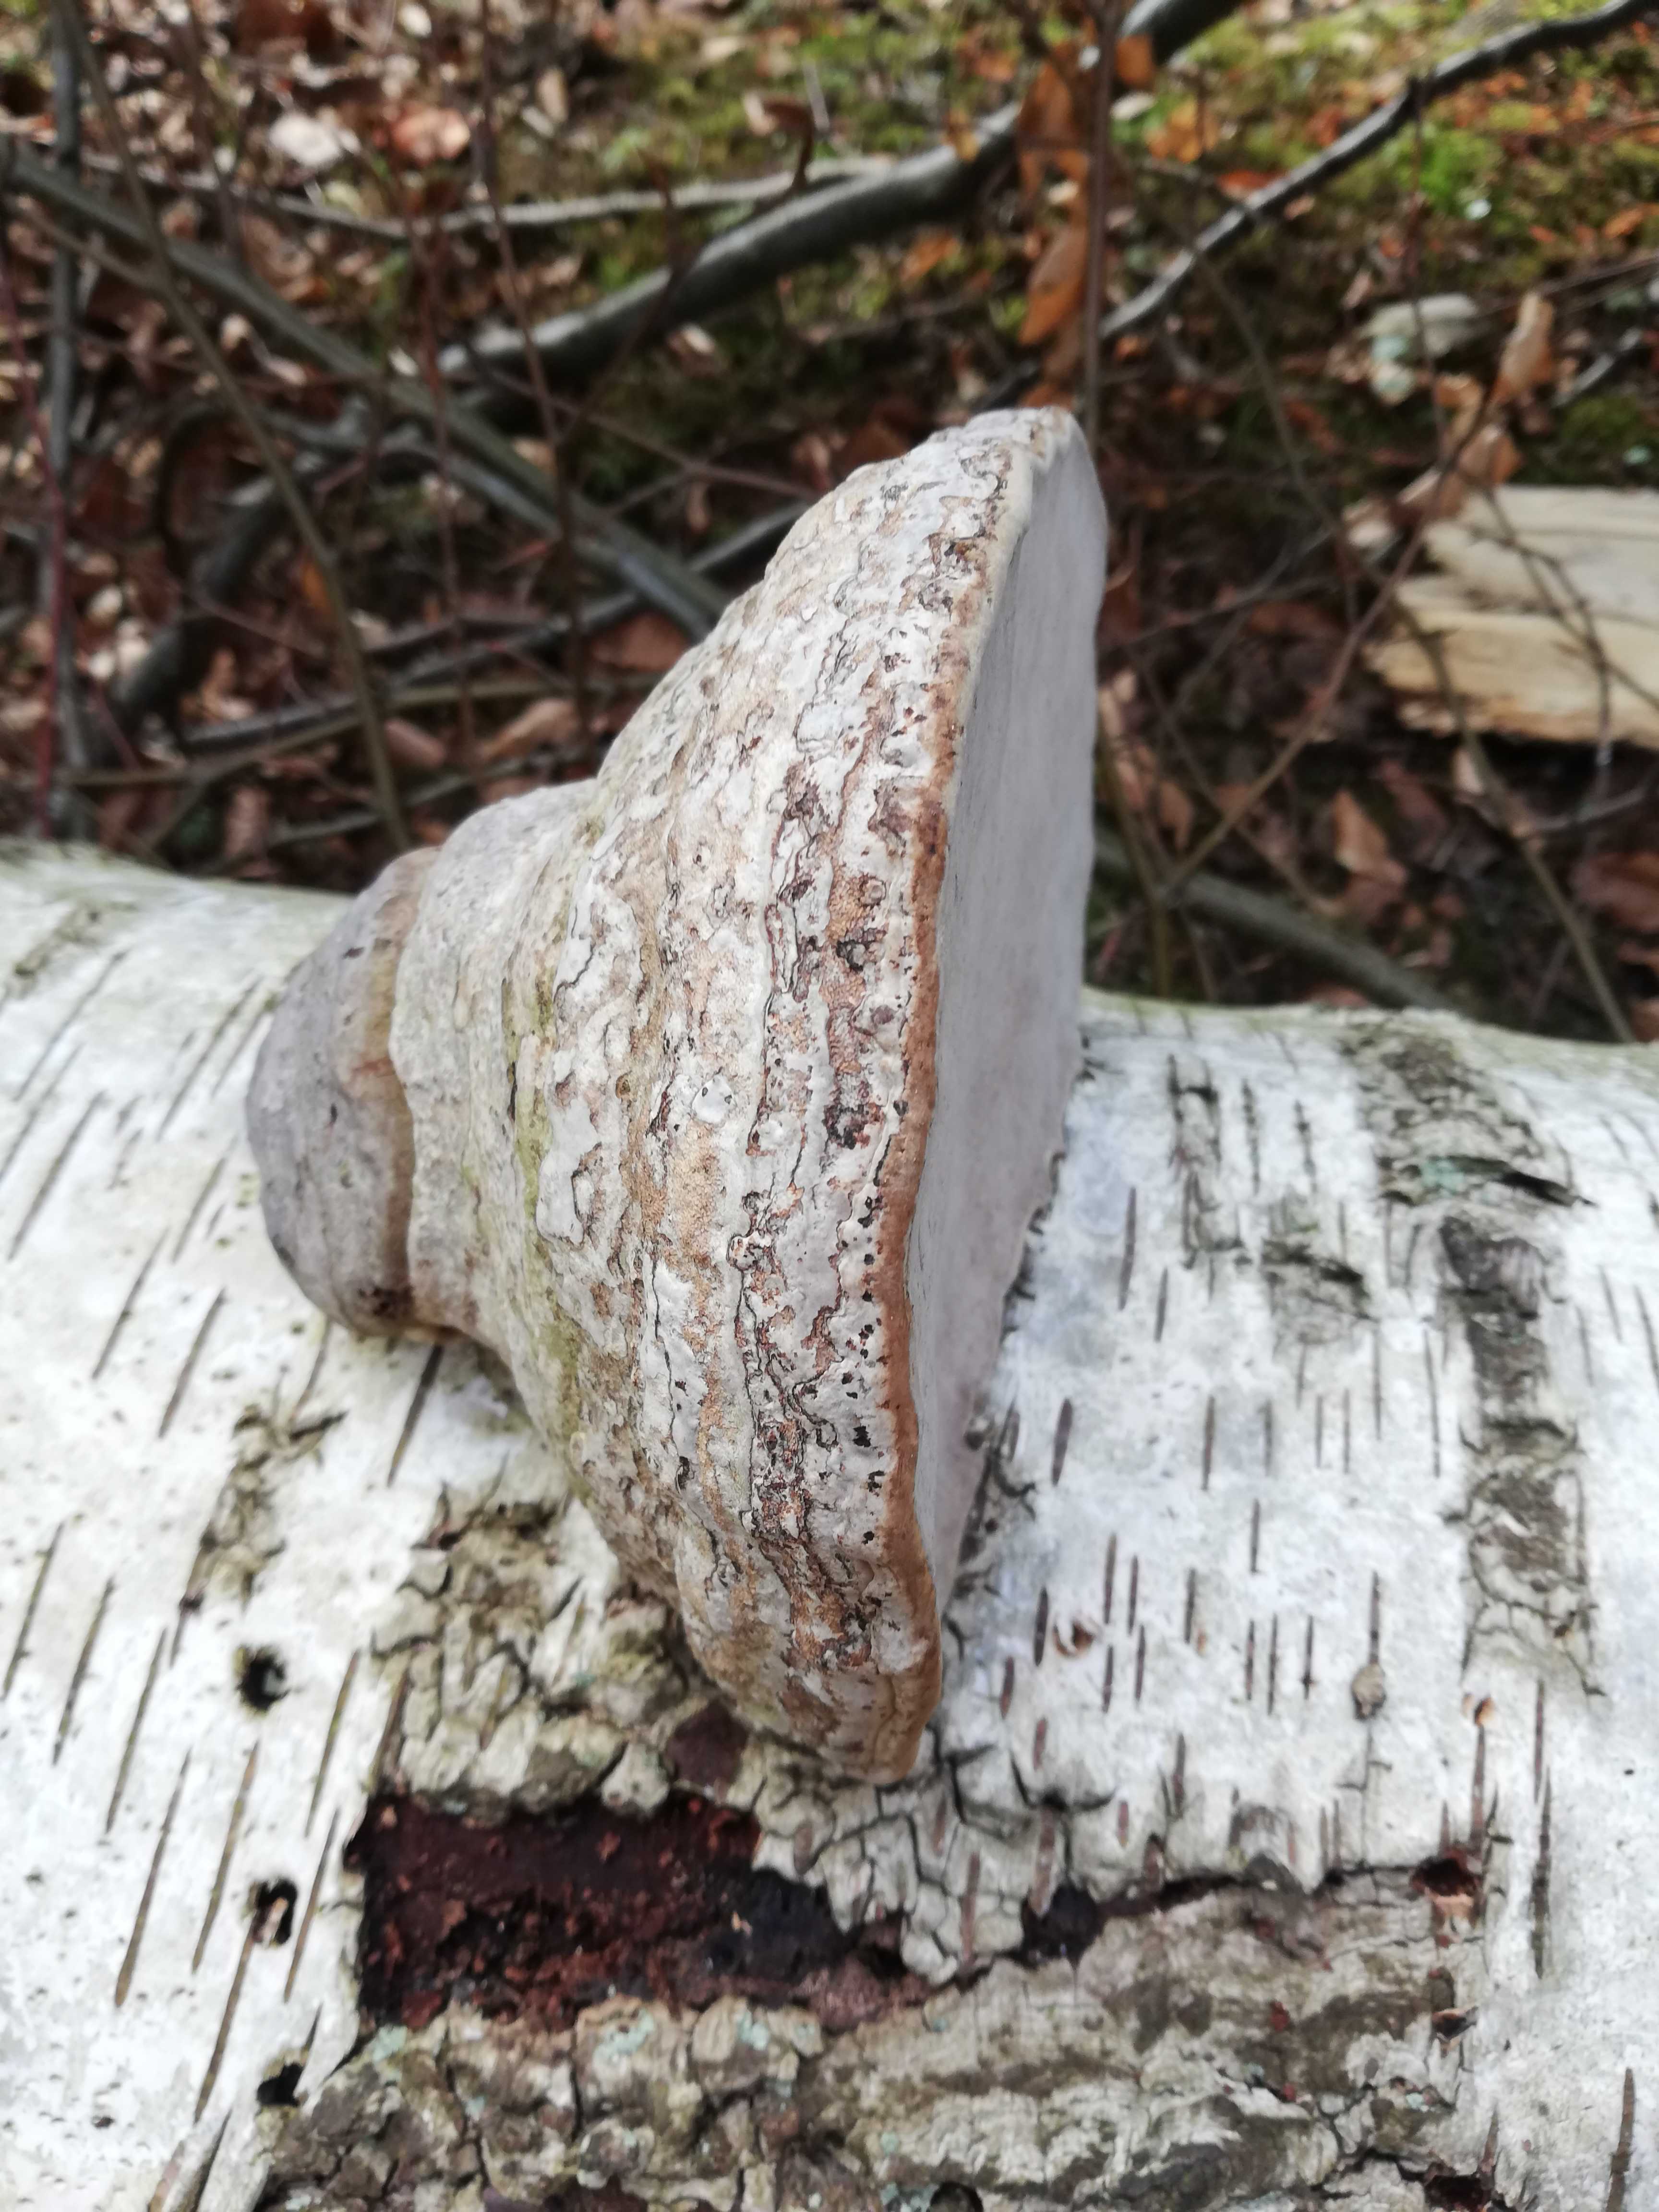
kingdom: Fungi
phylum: Basidiomycota
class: Agaricomycetes
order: Polyporales
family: Polyporaceae
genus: Fomes
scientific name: Fomes fomentarius
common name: tøndersvamp
